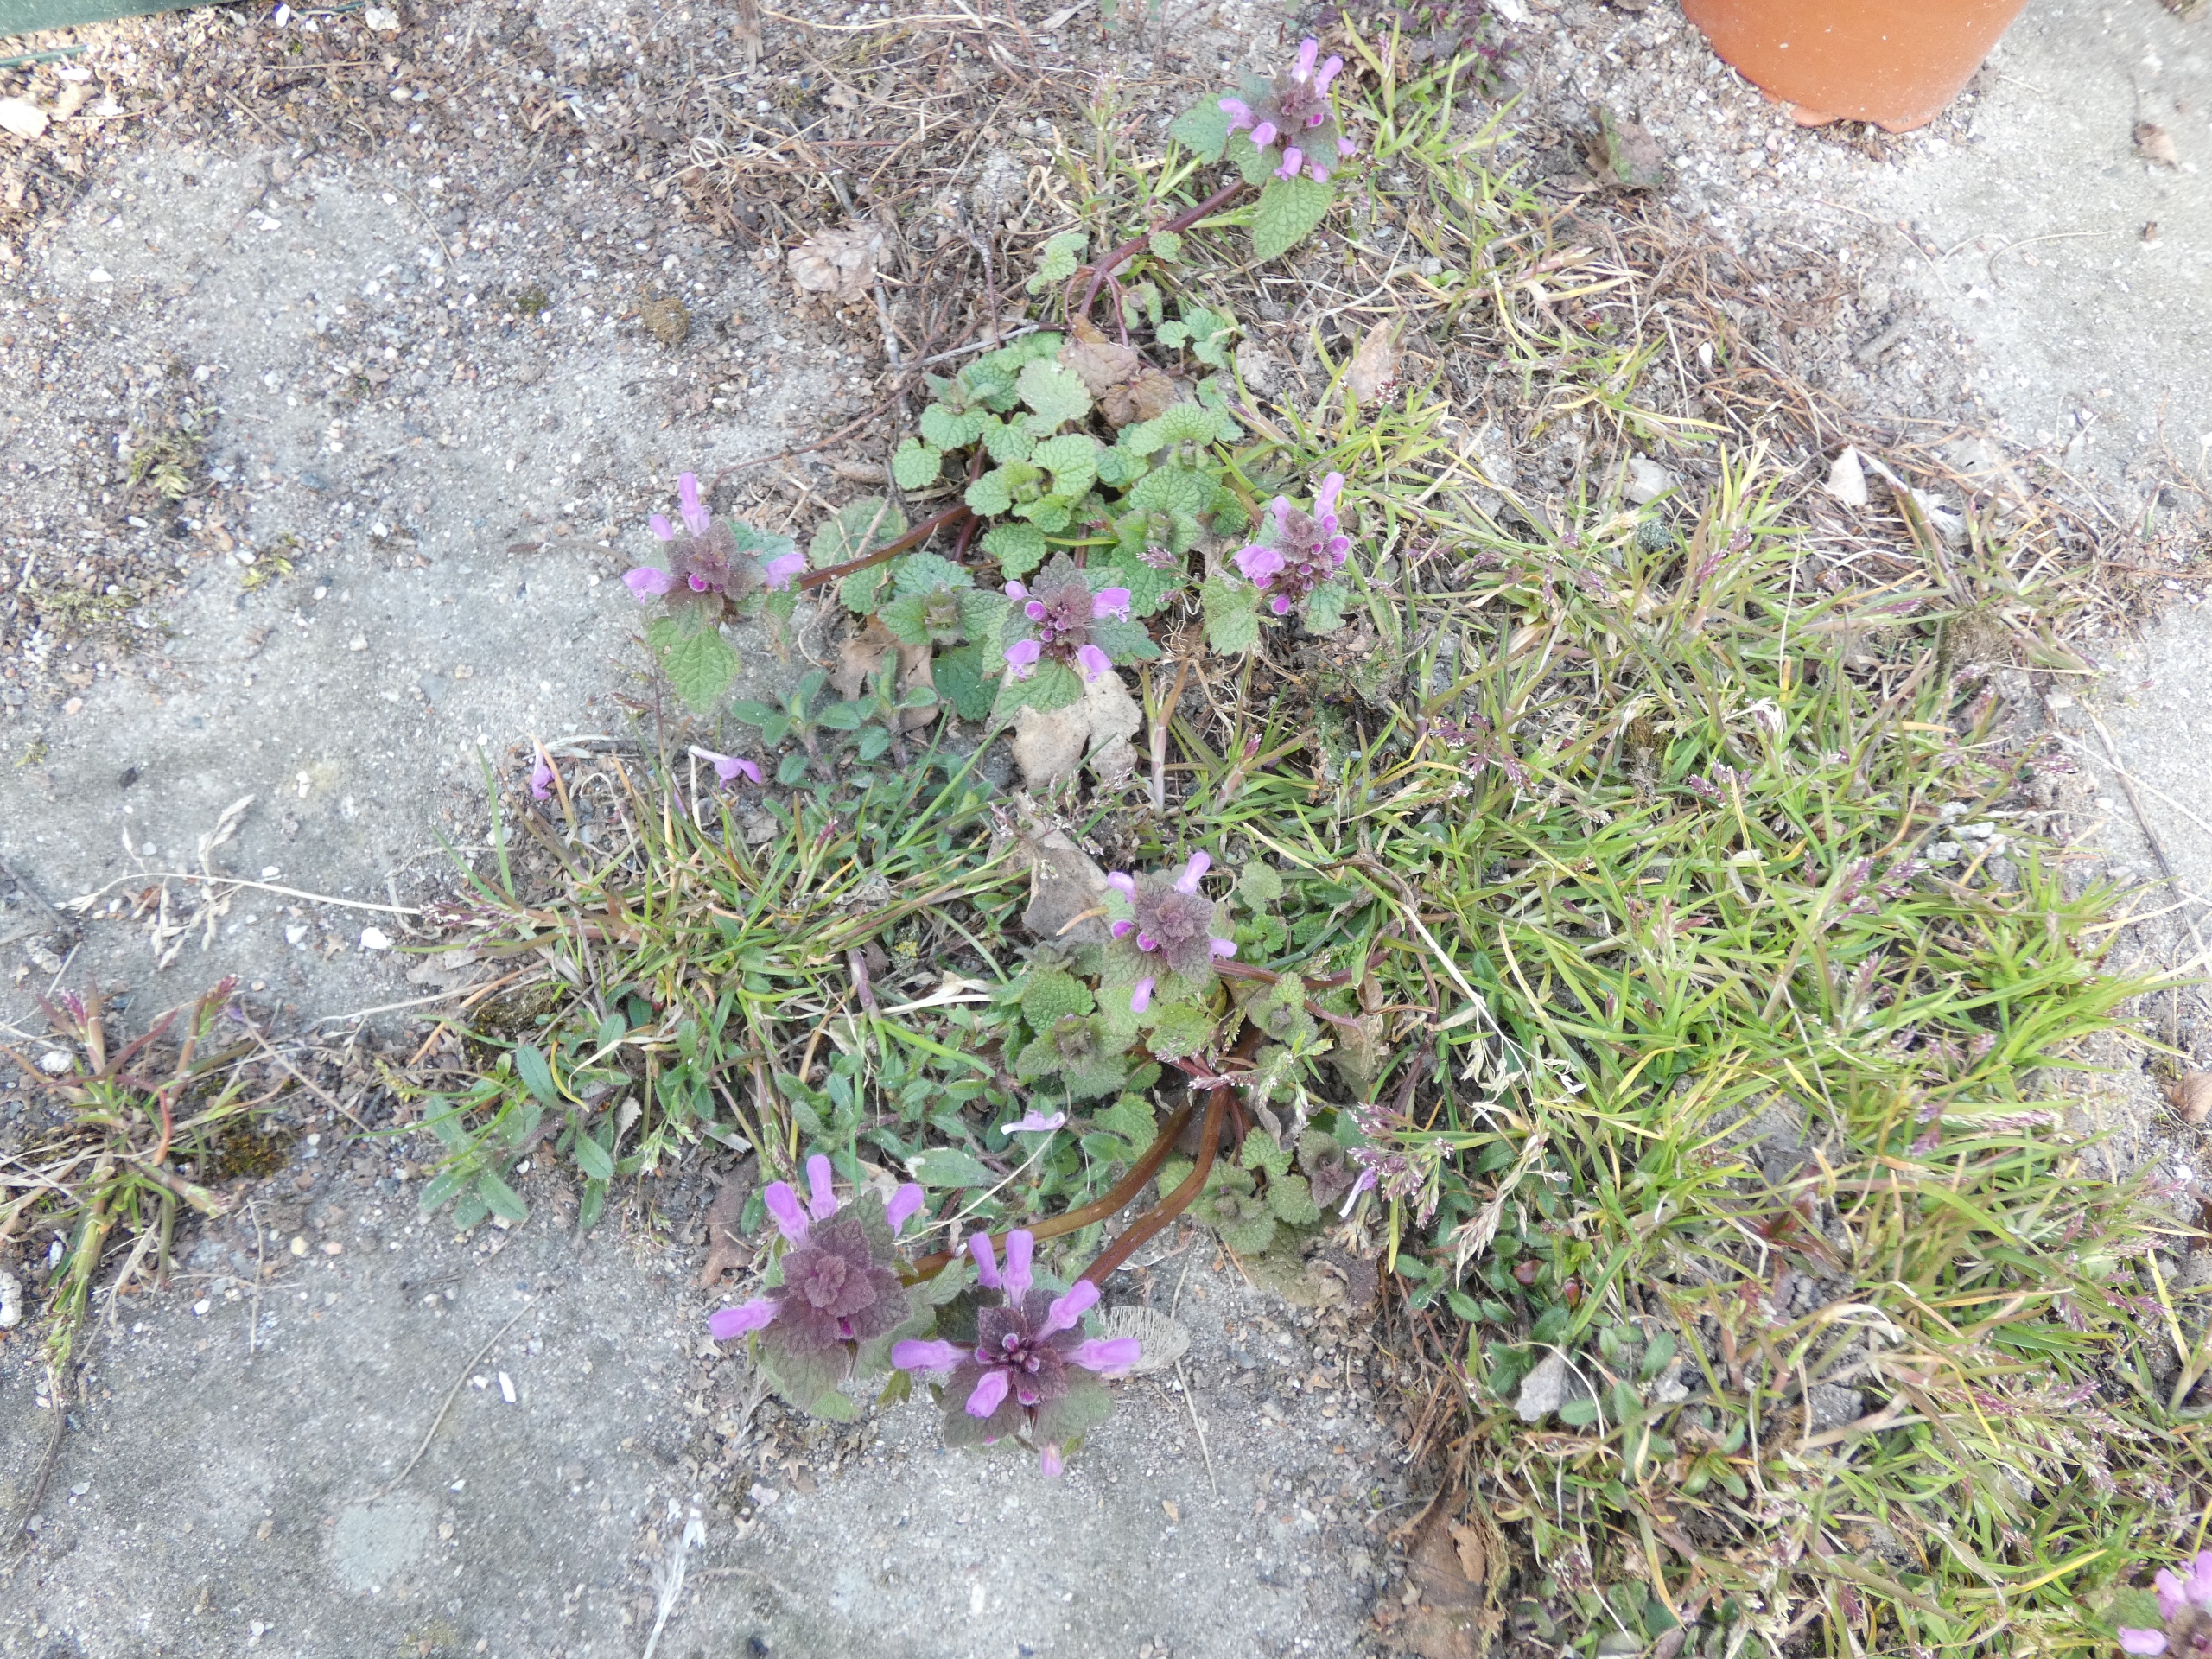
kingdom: Plantae
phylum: Tracheophyta
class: Magnoliopsida
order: Lamiales
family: Lamiaceae
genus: Lamium
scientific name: Lamium purpureum
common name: Rød tvetand
